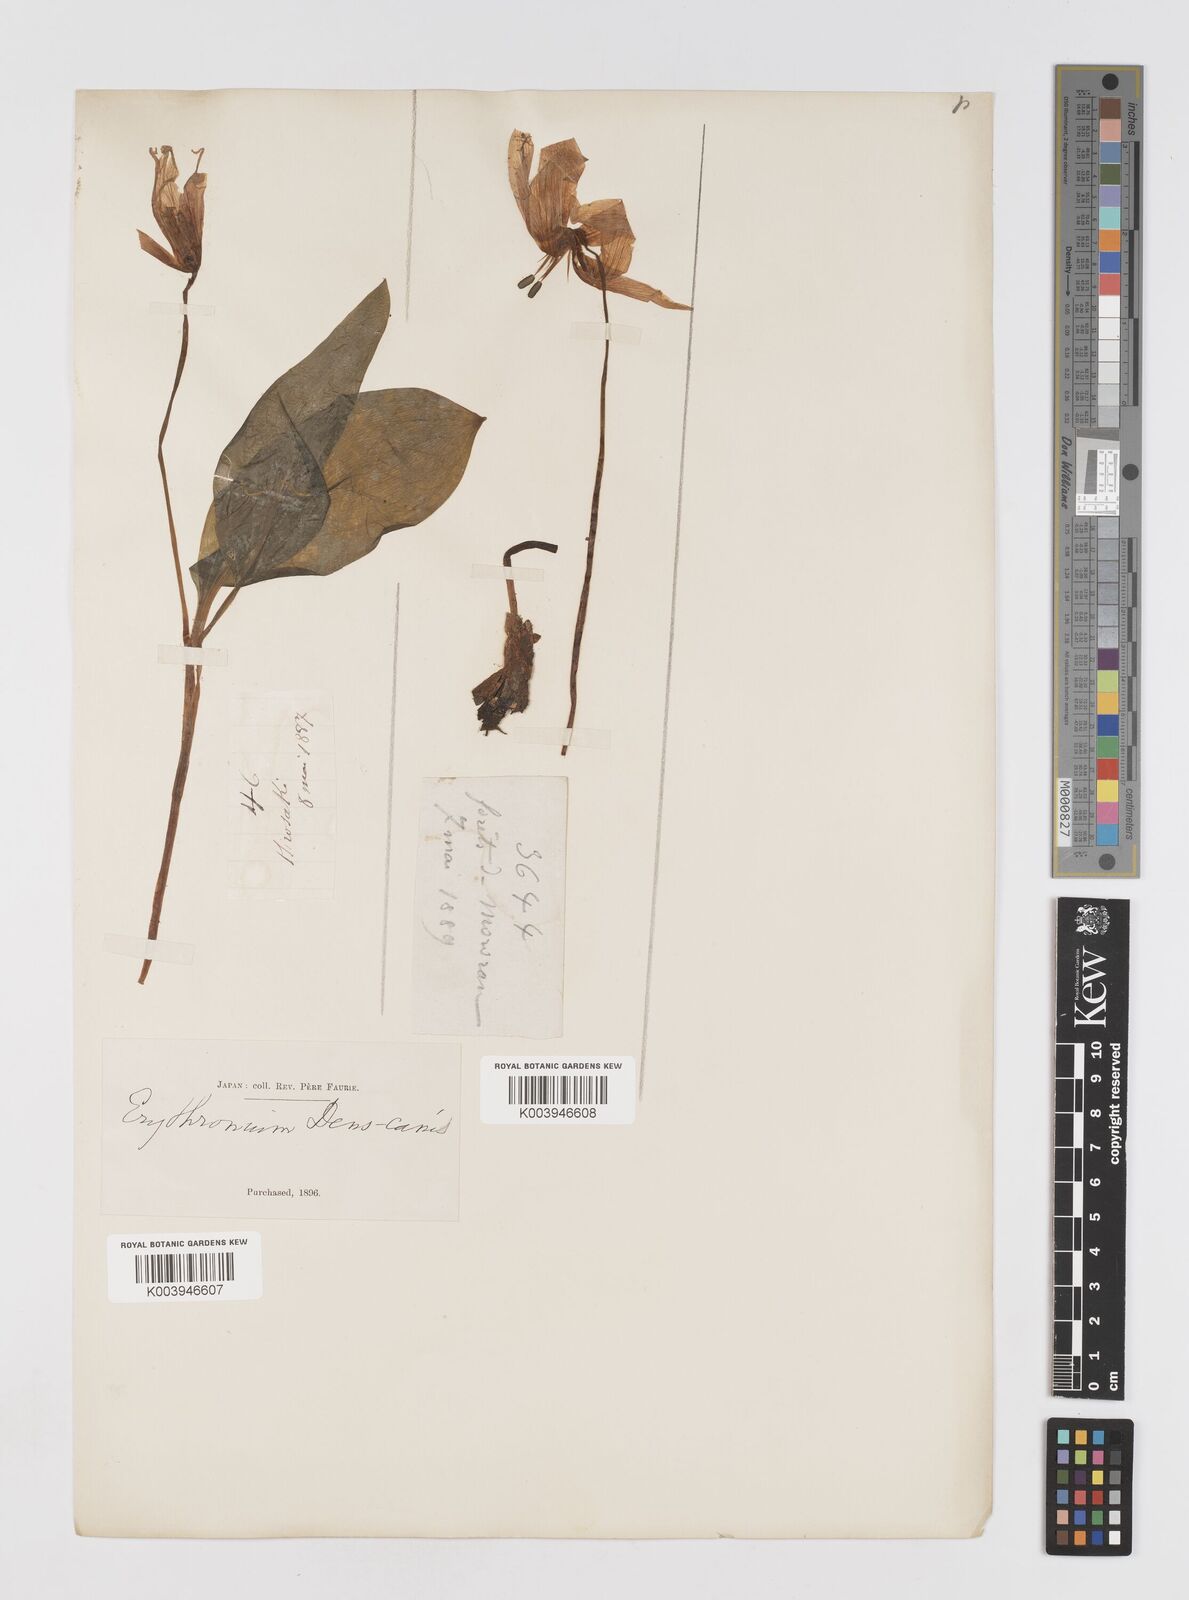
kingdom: Plantae
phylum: Tracheophyta
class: Liliopsida
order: Liliales
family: Liliaceae
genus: Erythronium
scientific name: Erythronium japonicum
